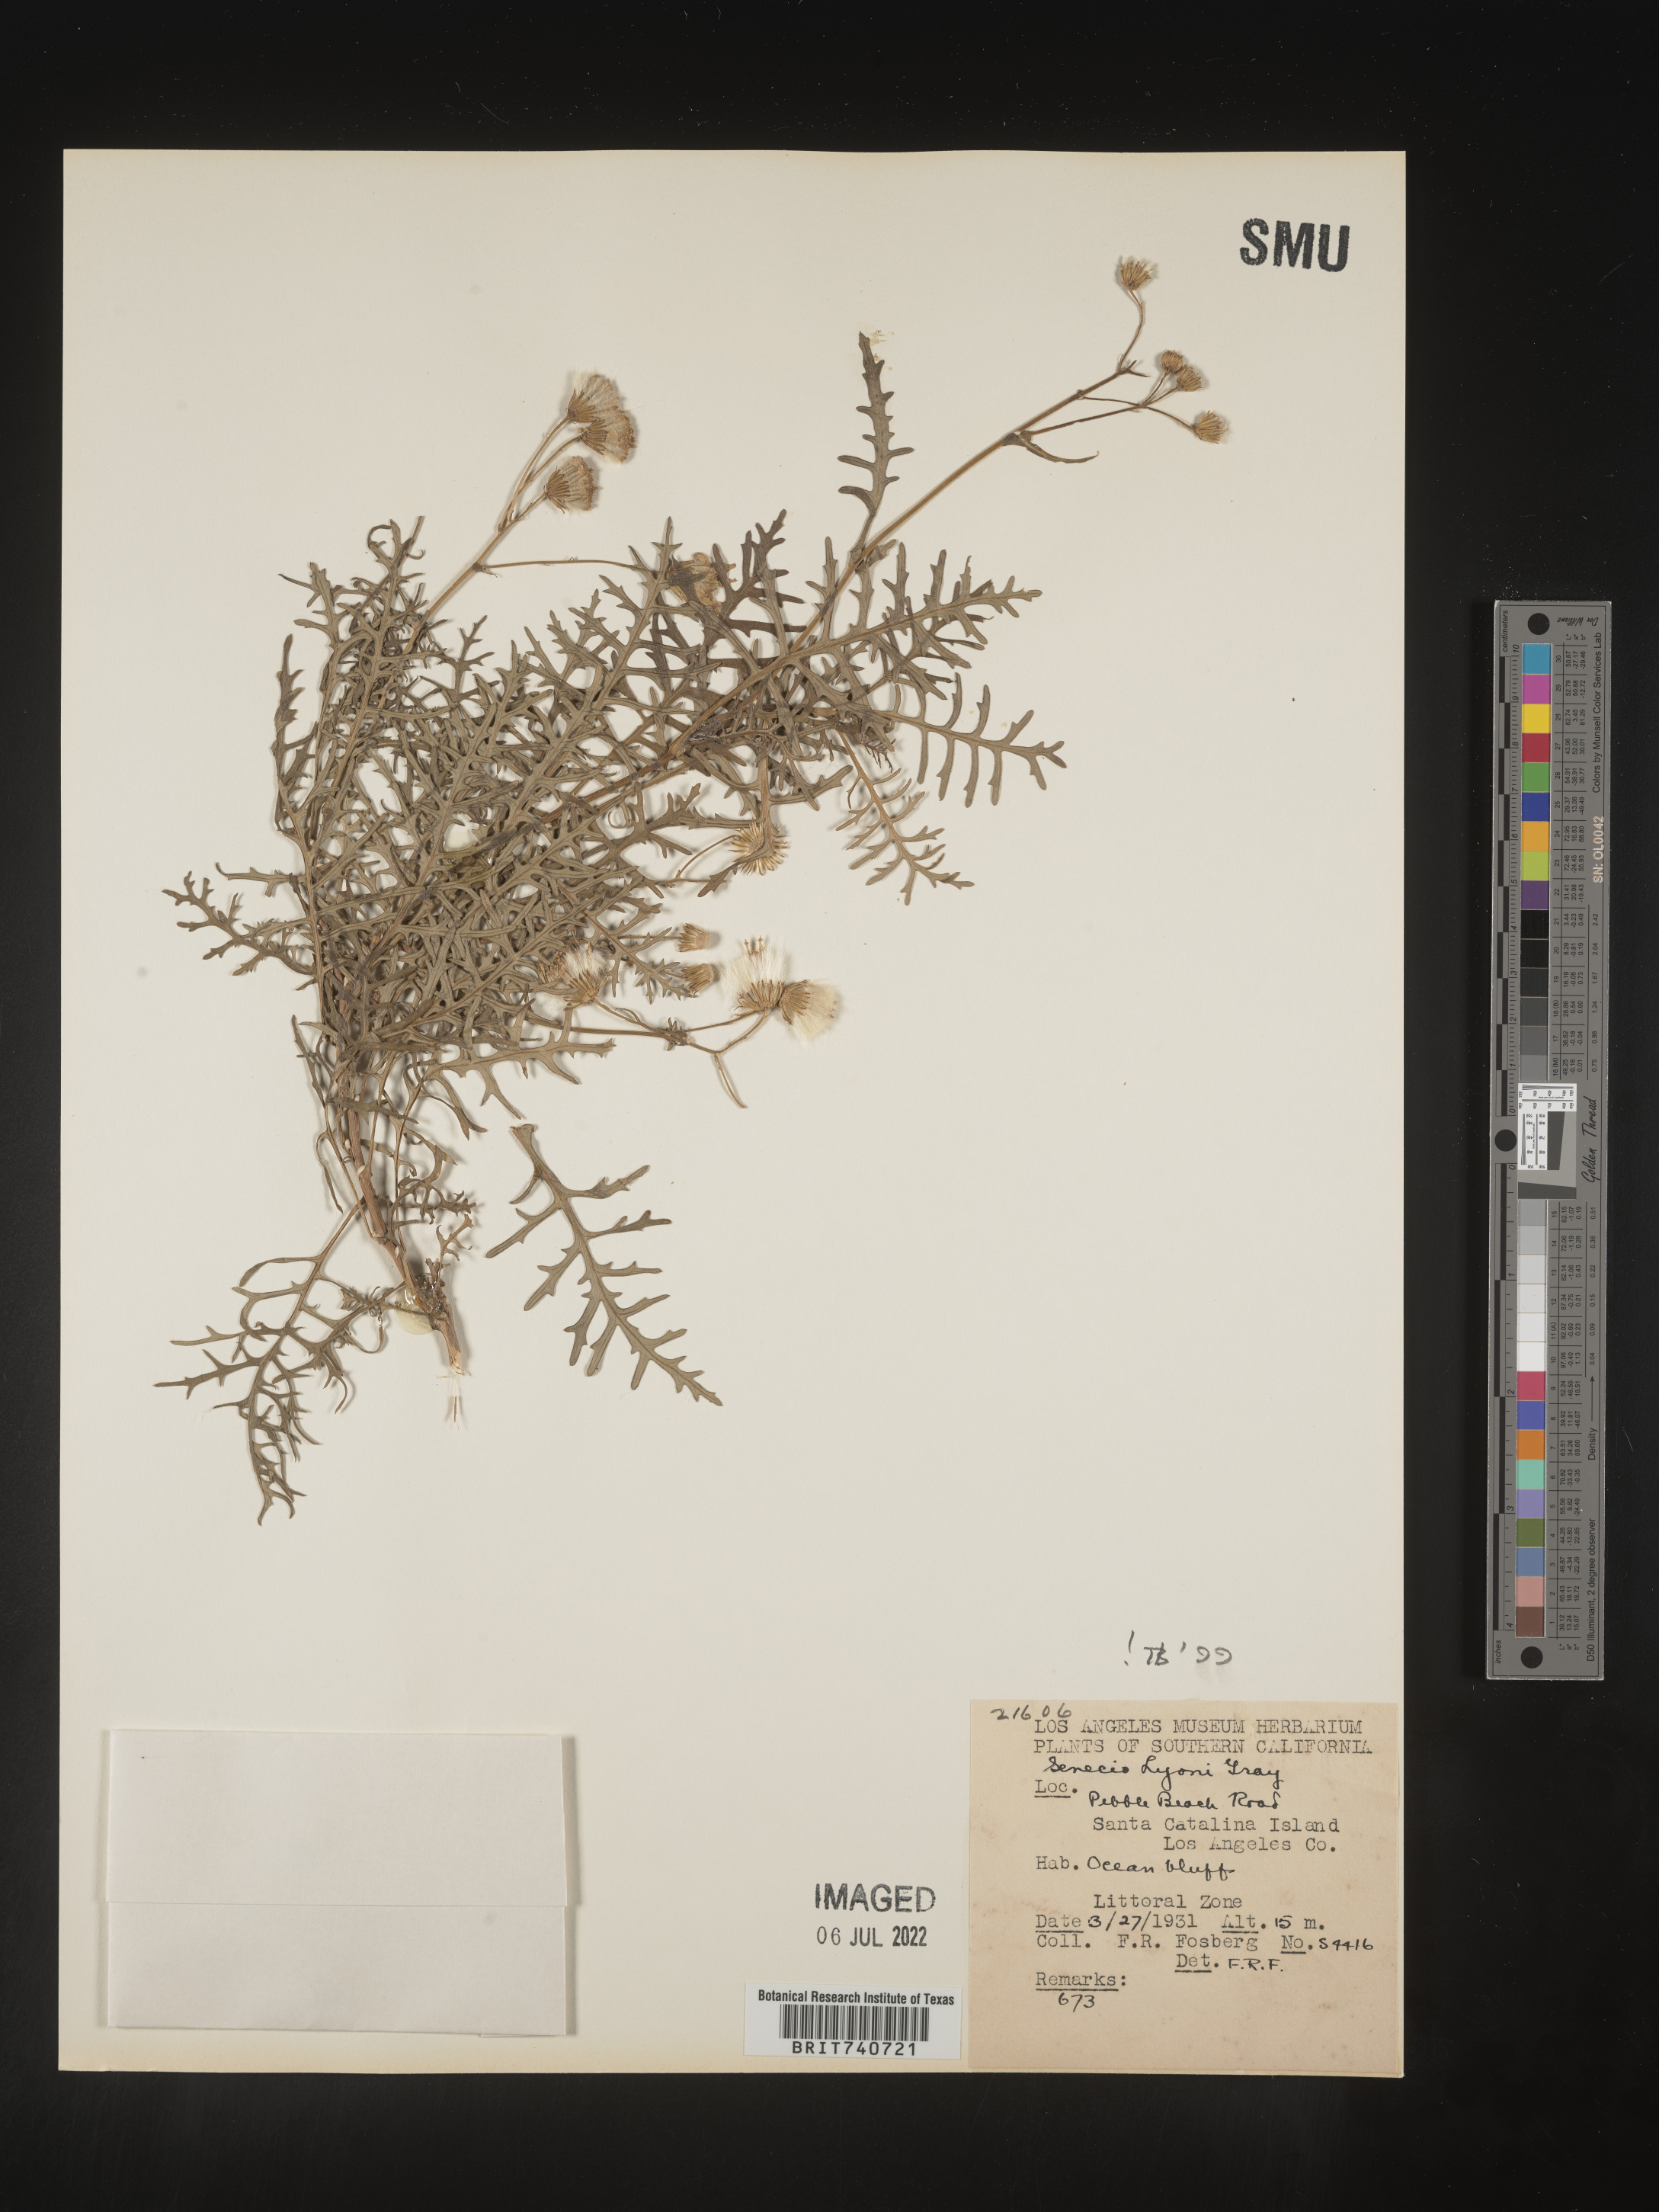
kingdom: Plantae
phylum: Tracheophyta
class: Magnoliopsida
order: Asterales
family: Asteraceae
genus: Senecio
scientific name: Senecio lyonii
